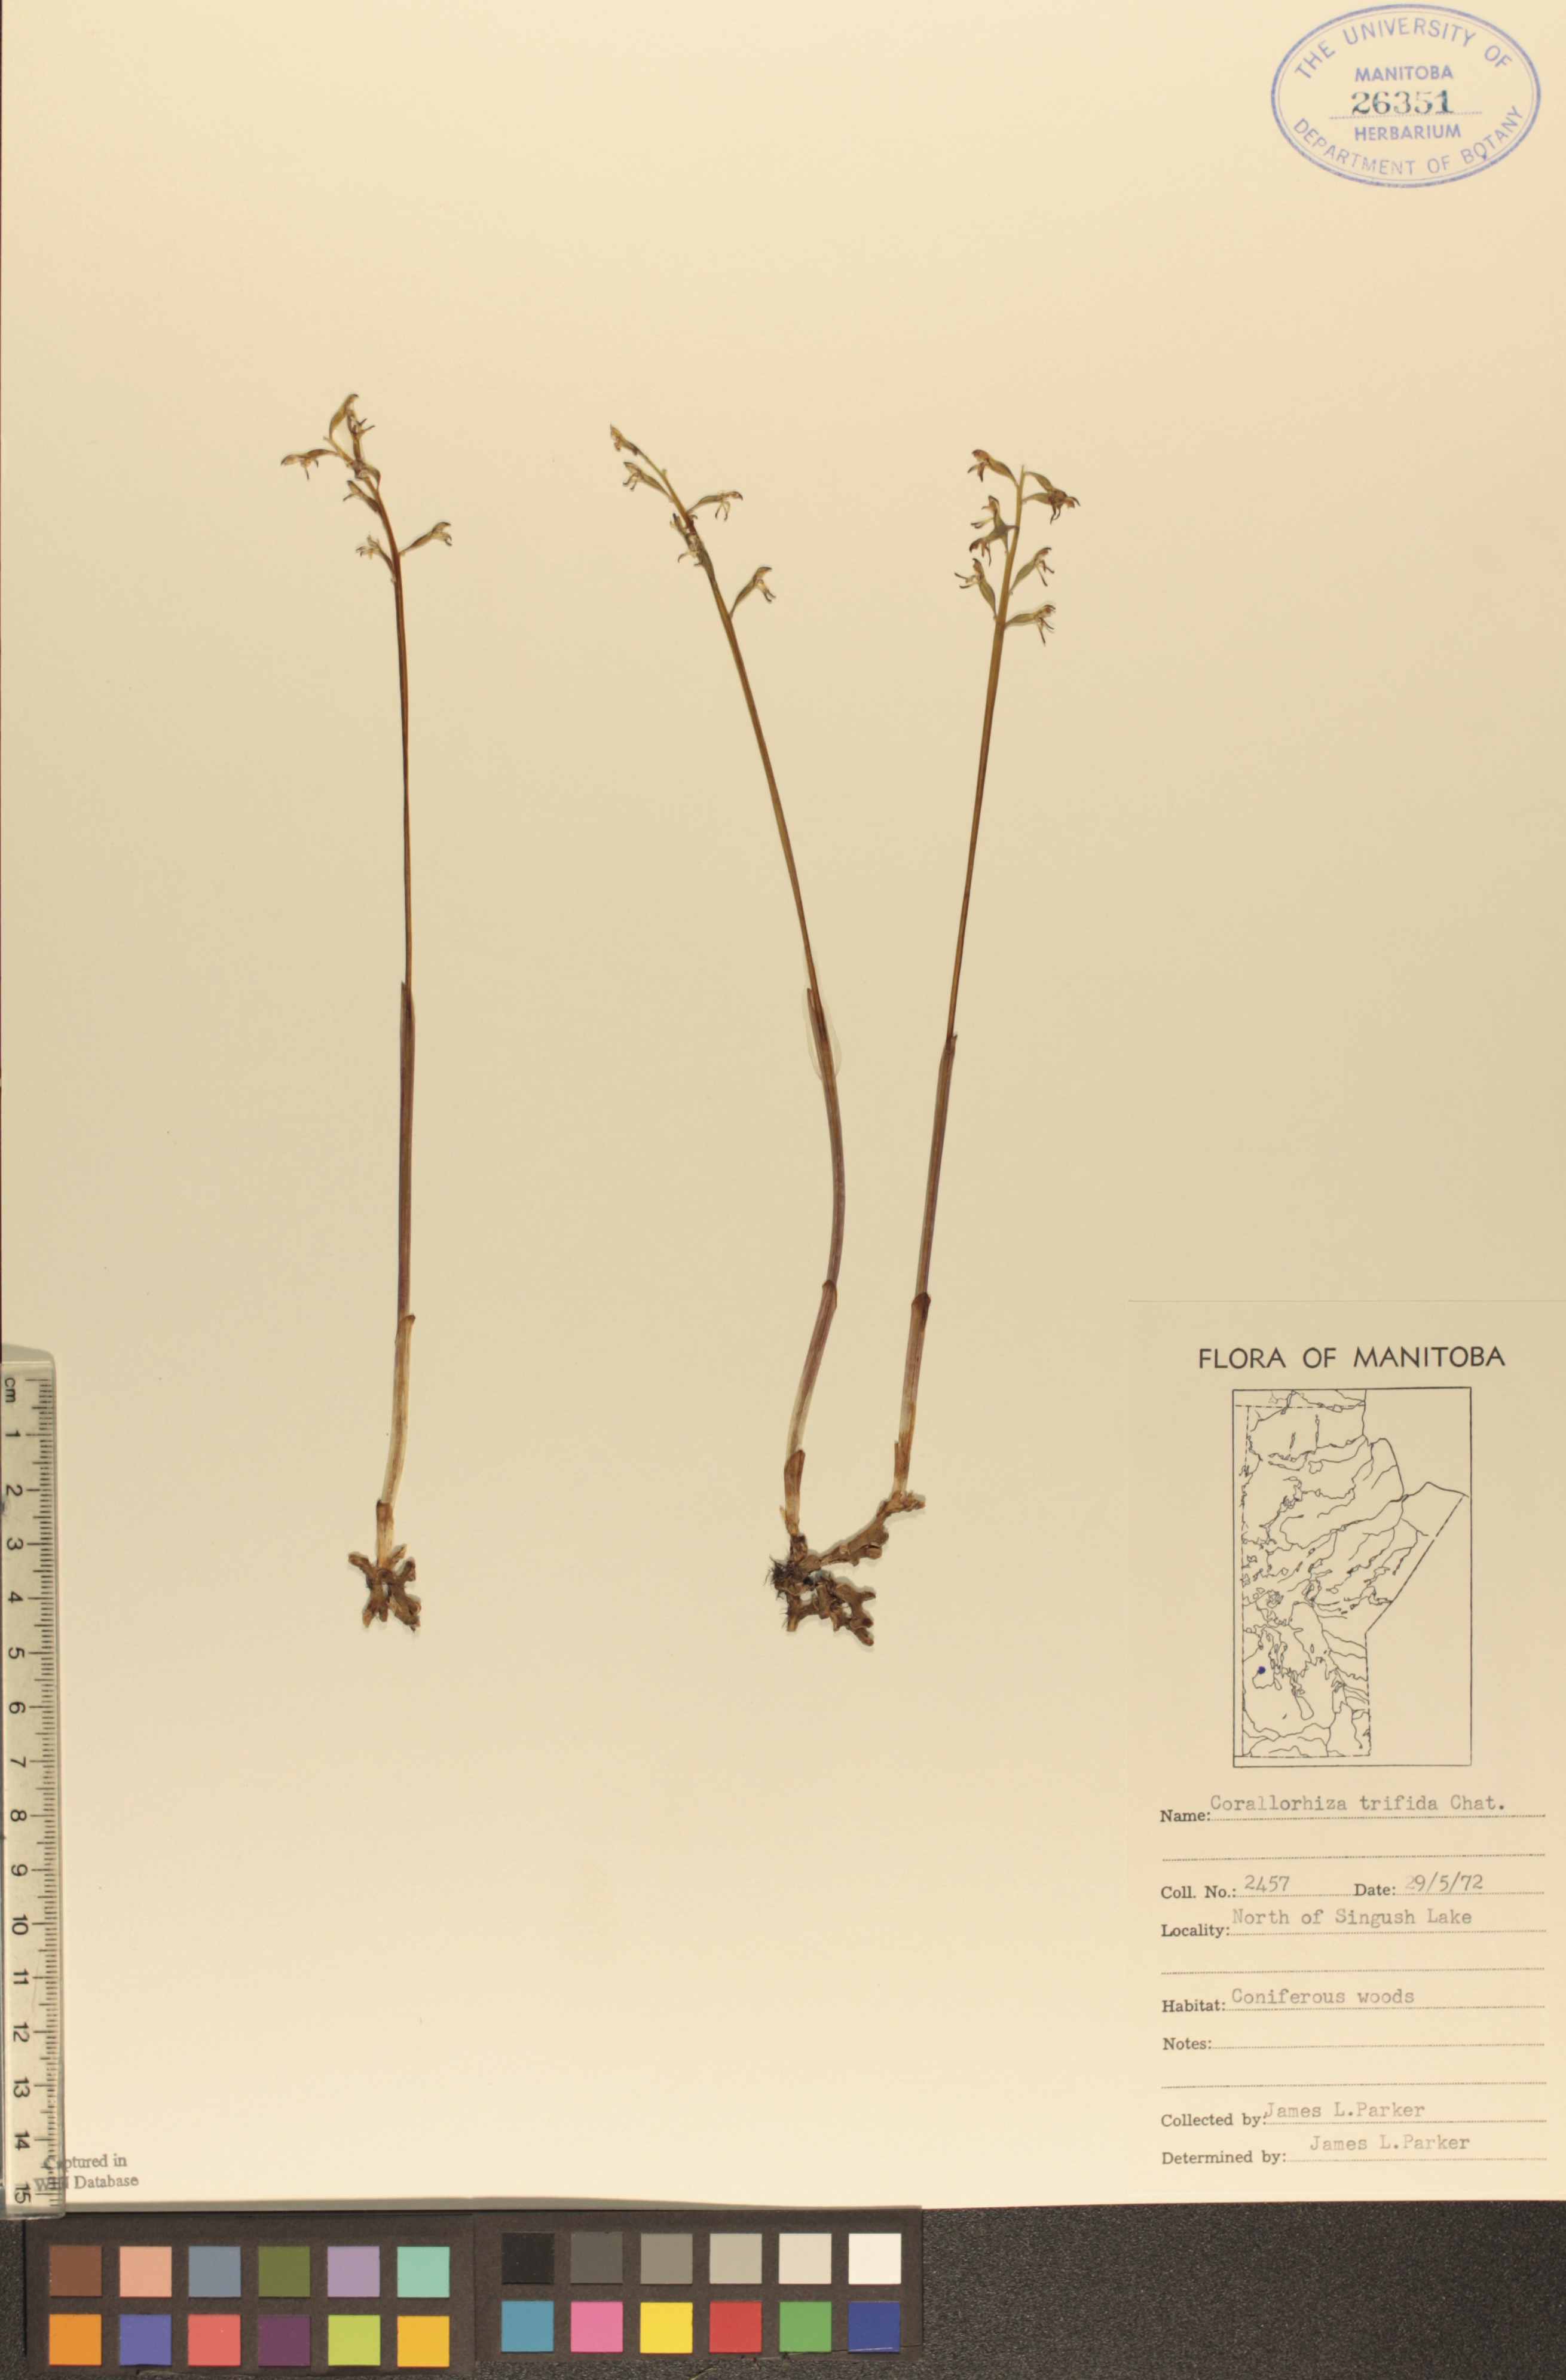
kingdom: Plantae
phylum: Tracheophyta
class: Liliopsida
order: Asparagales
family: Orchidaceae
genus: Corallorhiza
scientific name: Corallorhiza trifida
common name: Yellow coralroot
